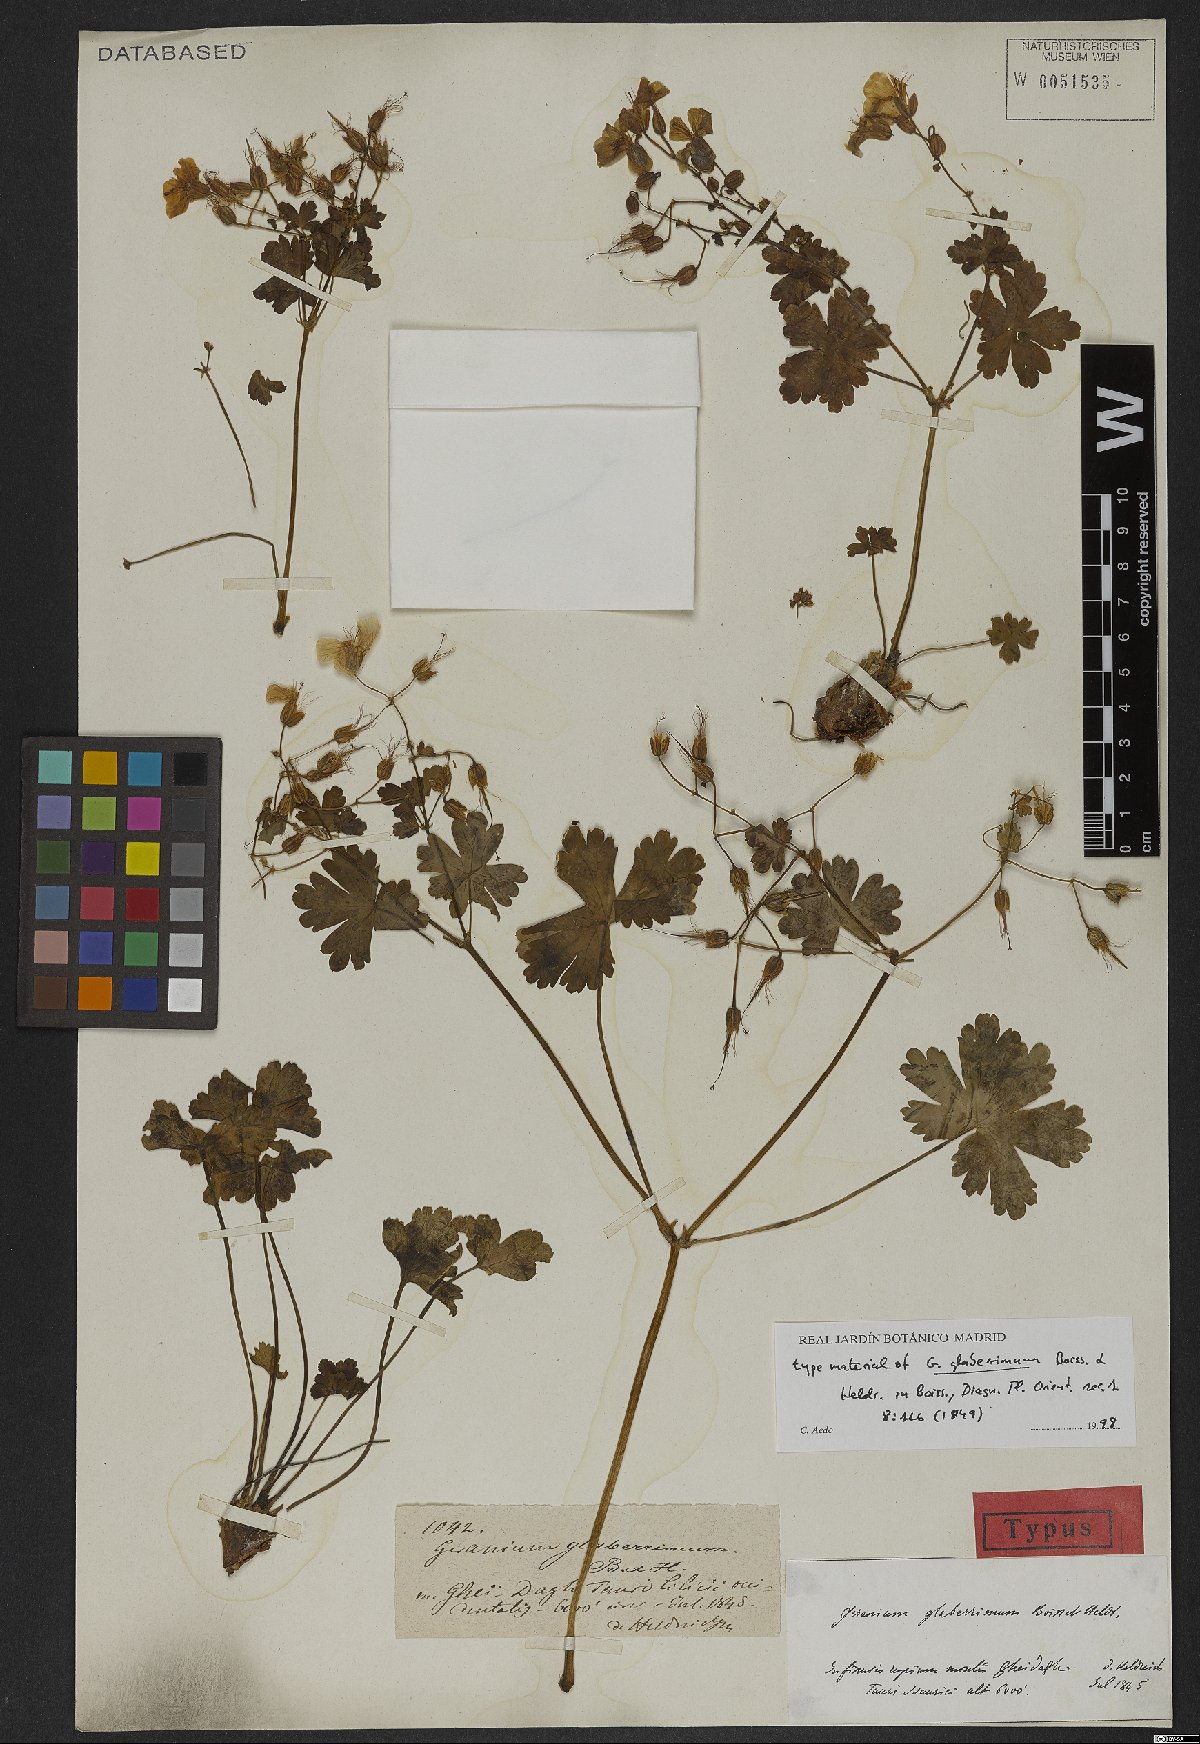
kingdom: Plantae
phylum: Tracheophyta
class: Magnoliopsida
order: Geraniales
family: Geraniaceae
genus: Geranium
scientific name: Geranium glaberrimum
